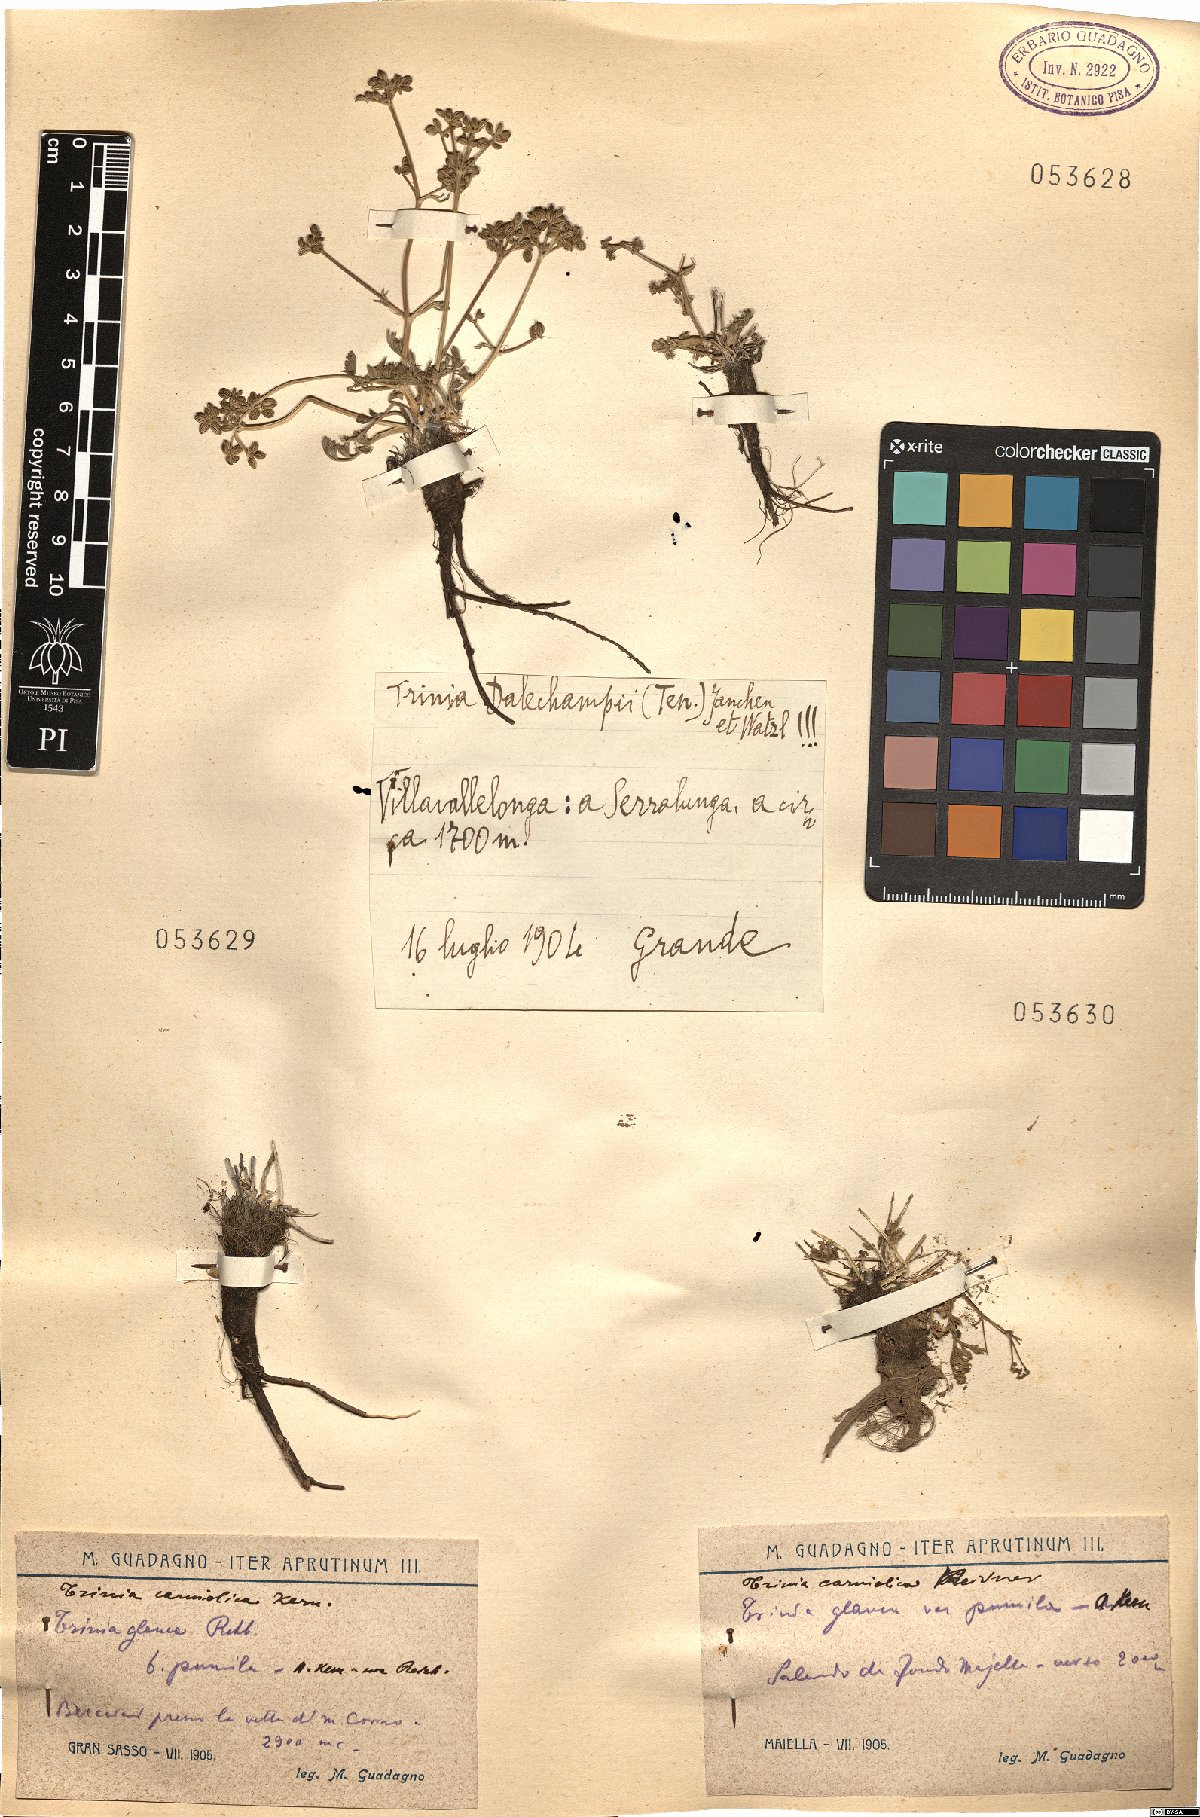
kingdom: Plantae
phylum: Tracheophyta
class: Magnoliopsida
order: Apiales
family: Apiaceae
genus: Trinia
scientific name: Trinia glauca
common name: Honewort
